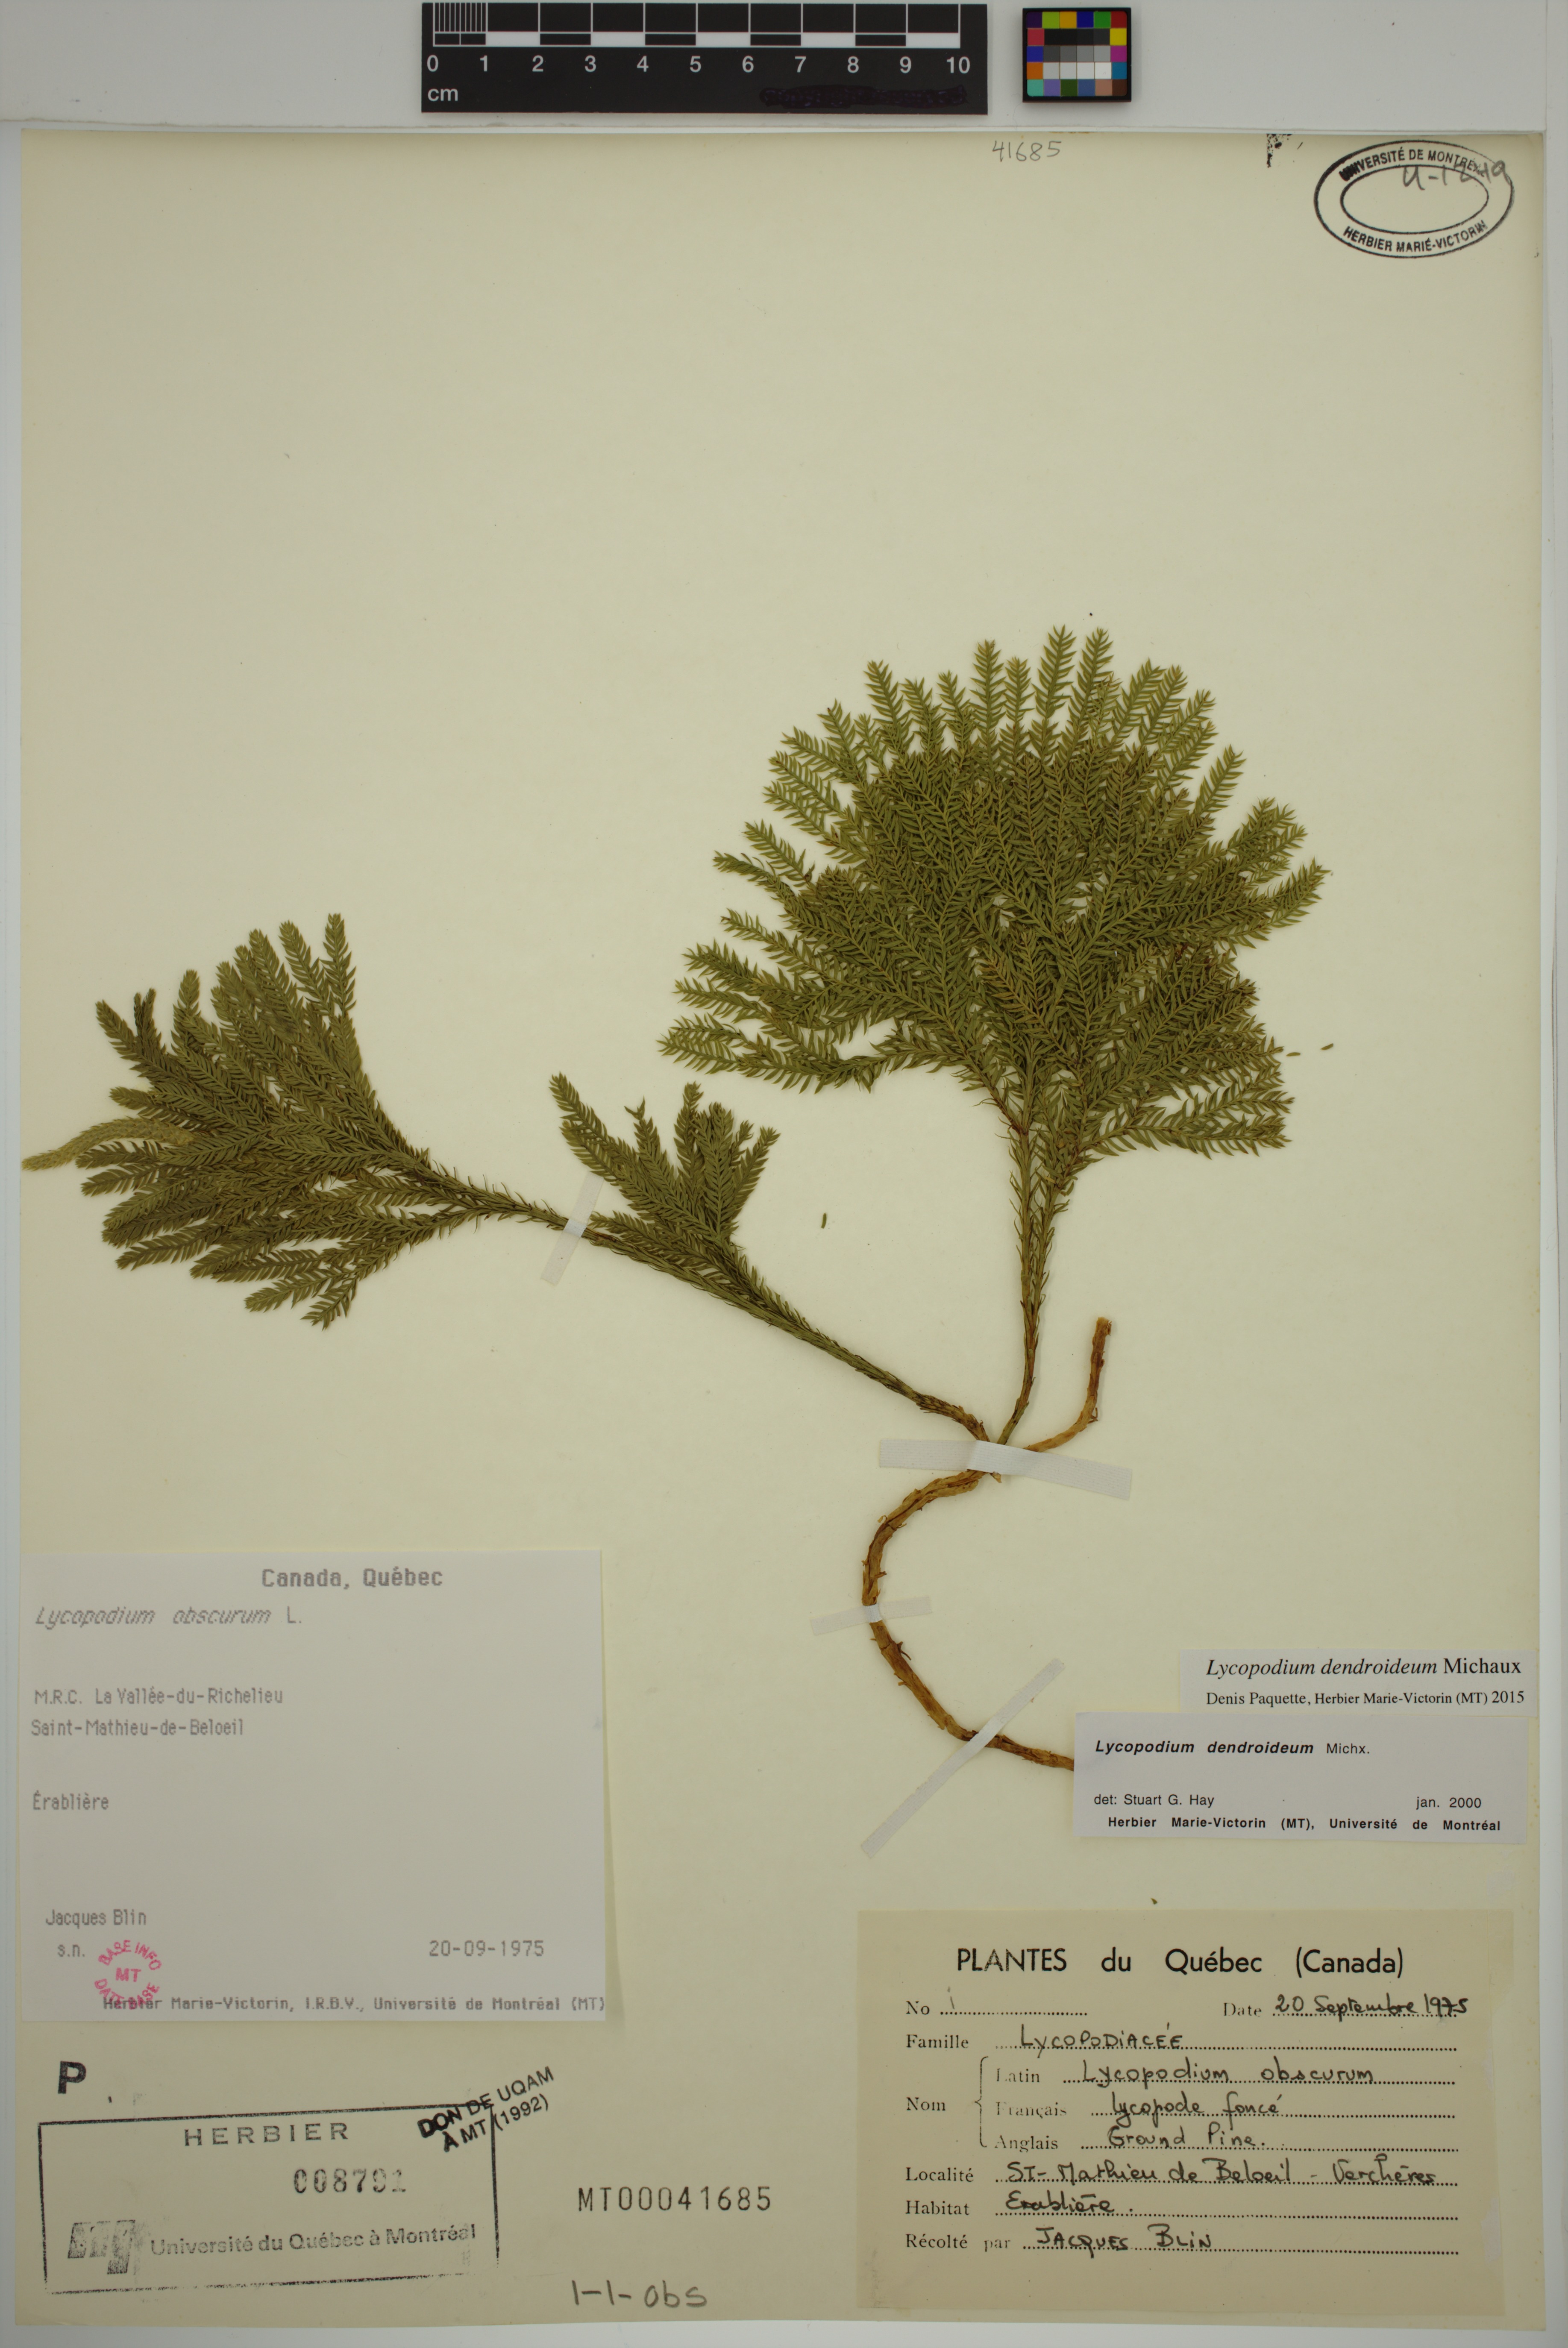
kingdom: Plantae
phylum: Tracheophyta
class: Lycopodiopsida
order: Lycopodiales
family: Lycopodiaceae
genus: Dendrolycopodium
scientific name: Dendrolycopodium dendroideum
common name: Northern tree-clubmoss
